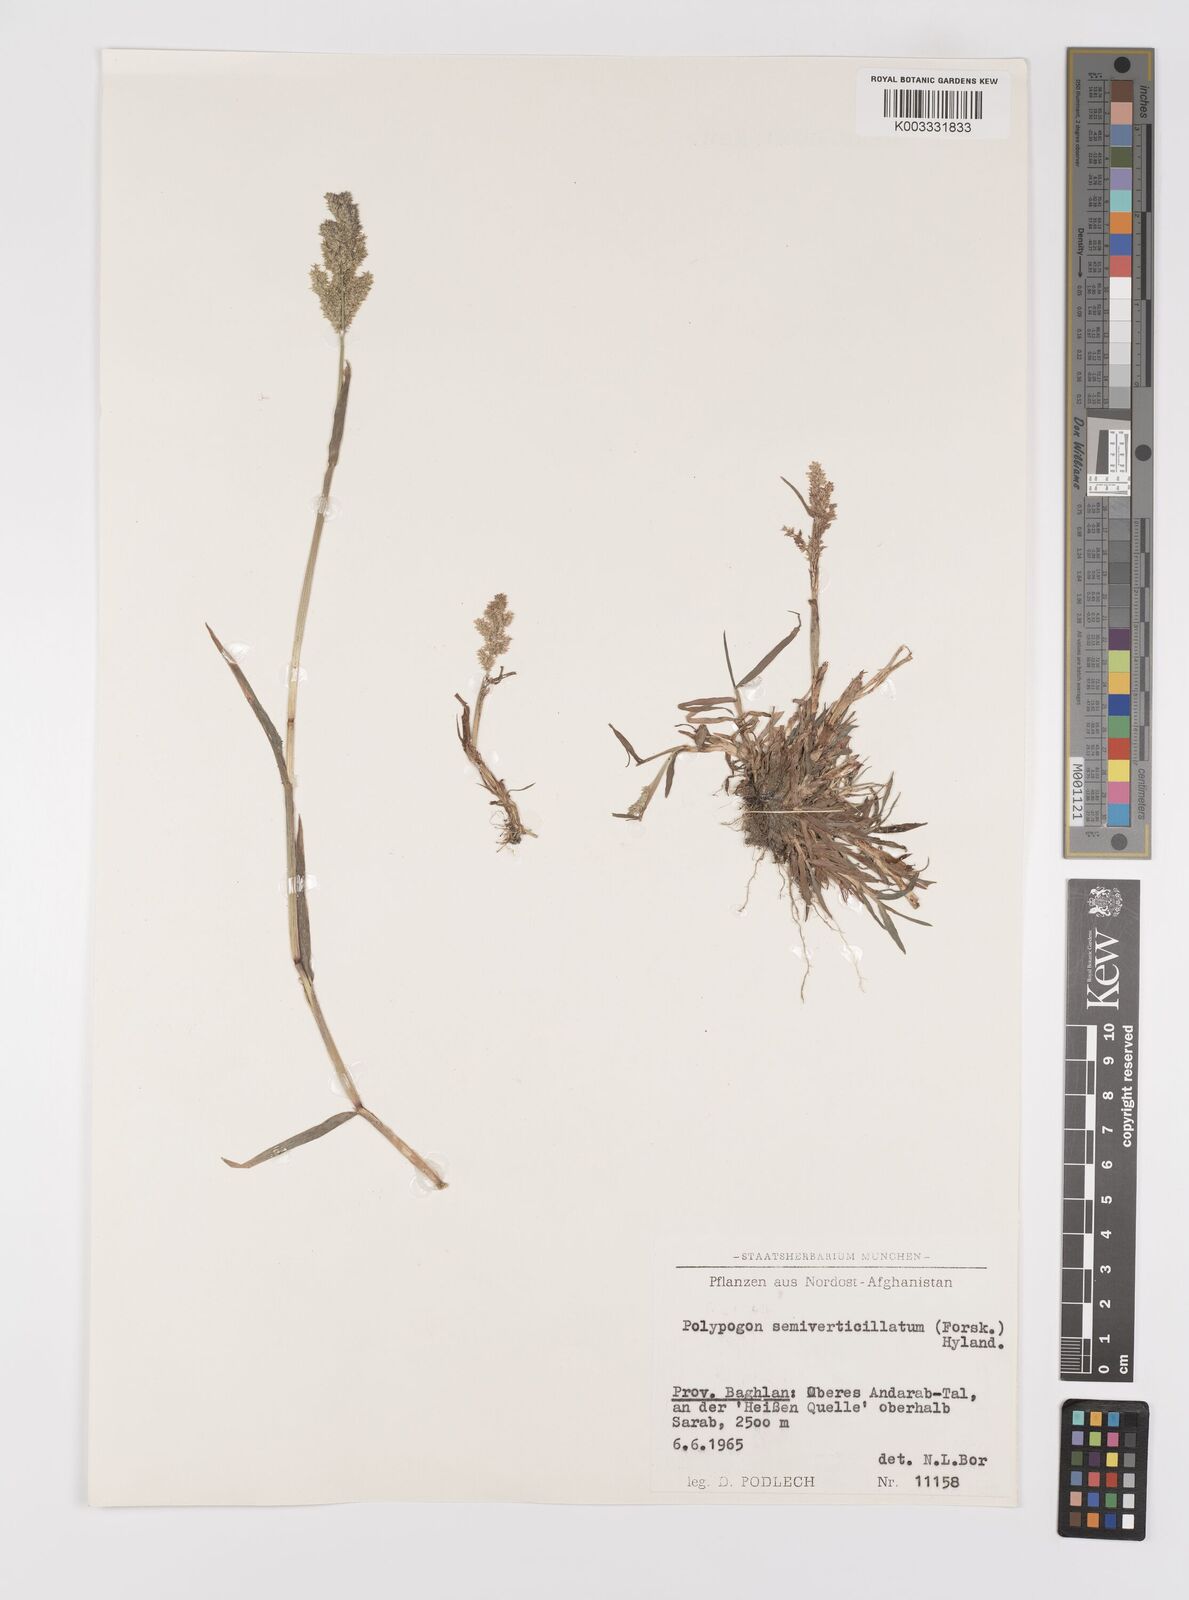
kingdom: Plantae
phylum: Tracheophyta
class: Liliopsida
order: Poales
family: Poaceae
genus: Polypogon
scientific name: Polypogon viridis
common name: Water bent
